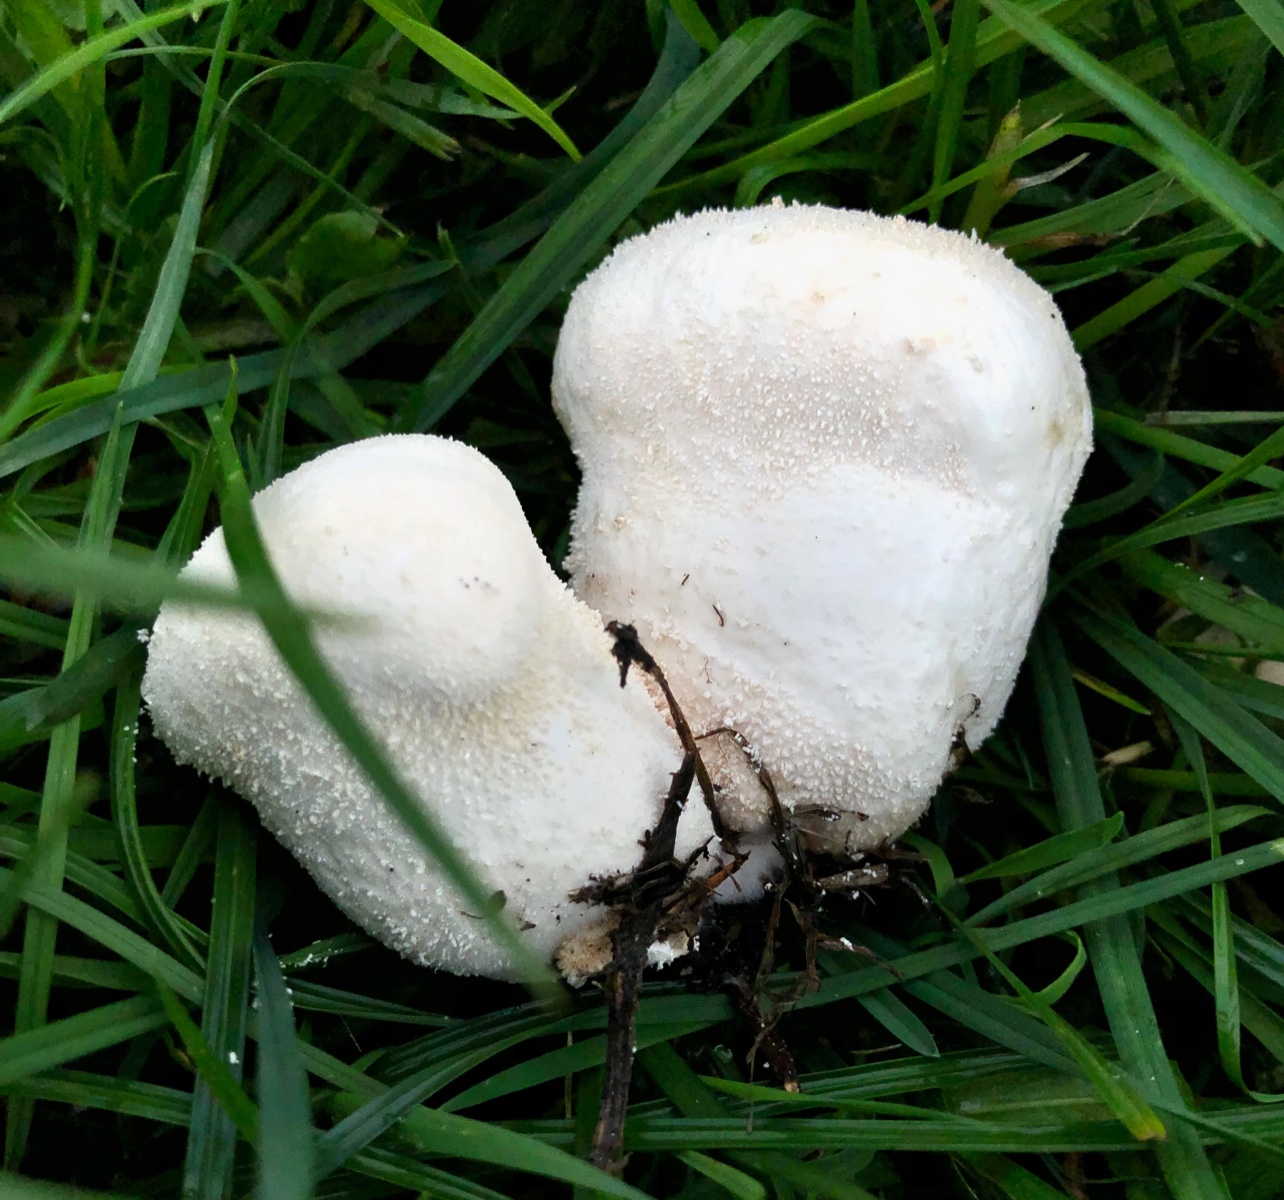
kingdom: Fungi
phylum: Basidiomycota
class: Agaricomycetes
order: Agaricales
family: Lycoperdaceae
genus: Lycoperdon
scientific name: Lycoperdon pratense
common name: flad støvbold
